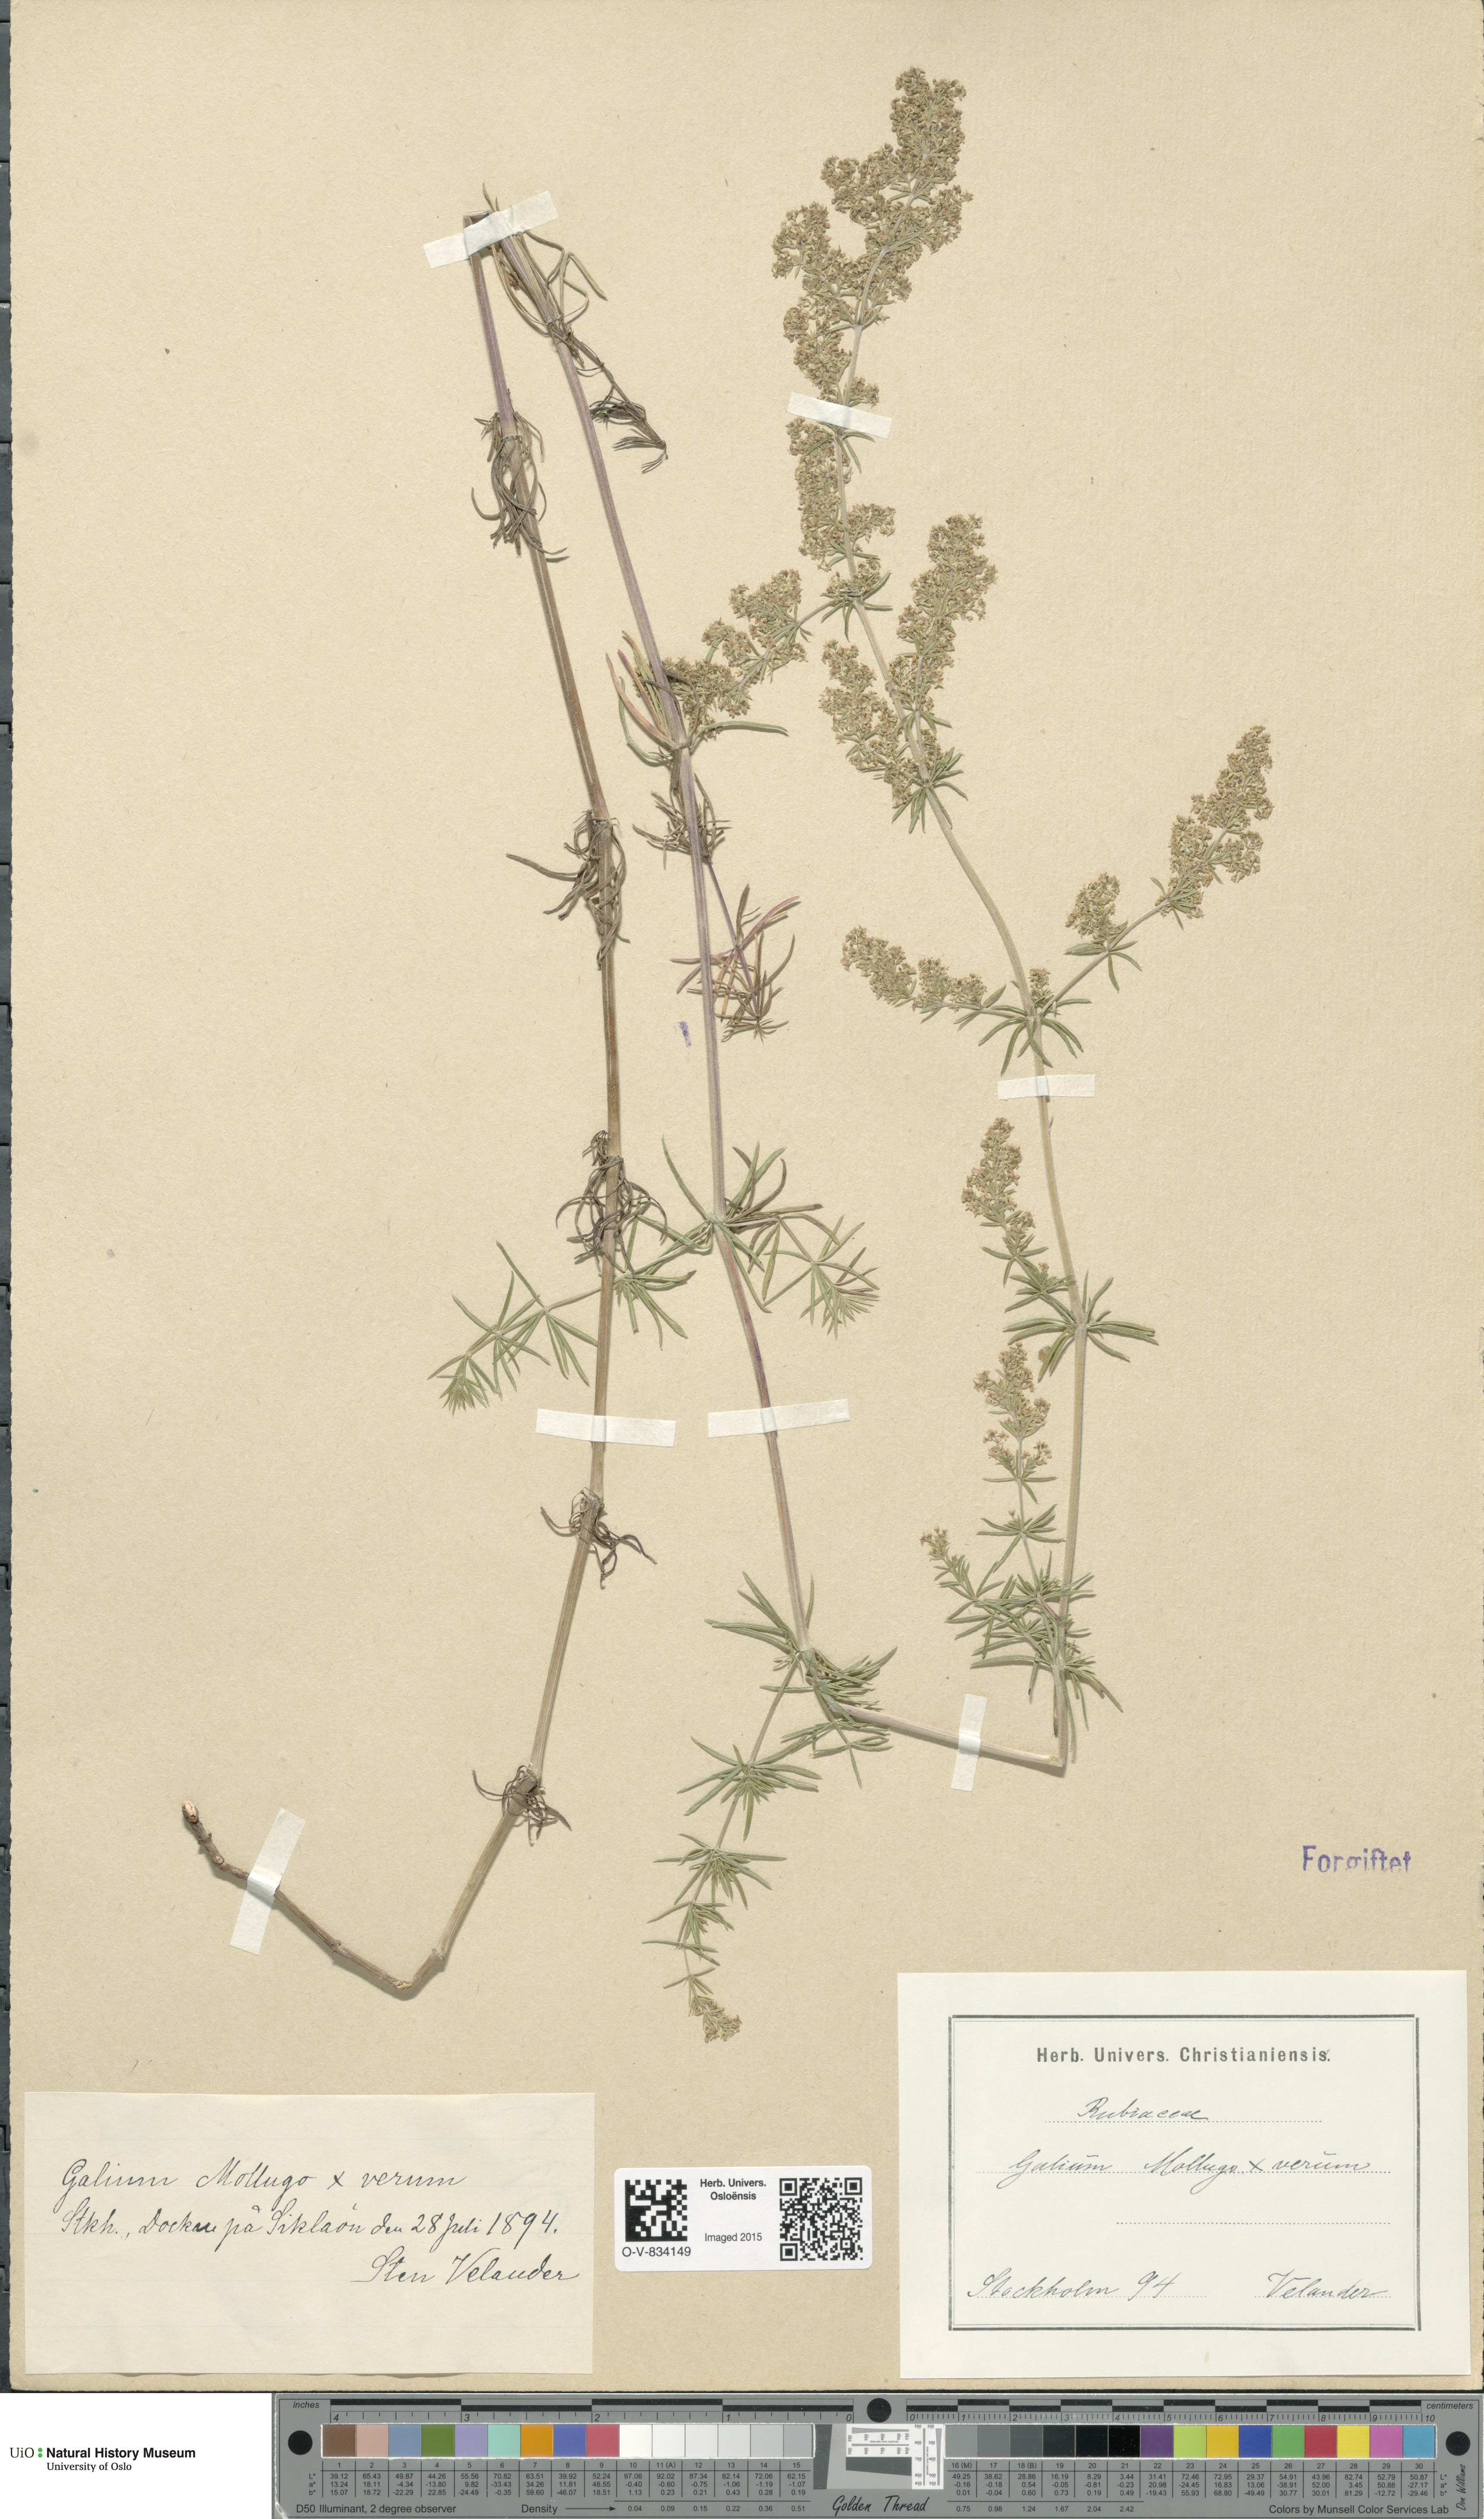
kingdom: Plantae
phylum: Tracheophyta
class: Magnoliopsida
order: Gentianales
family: Rubiaceae
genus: Galium
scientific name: Galium
